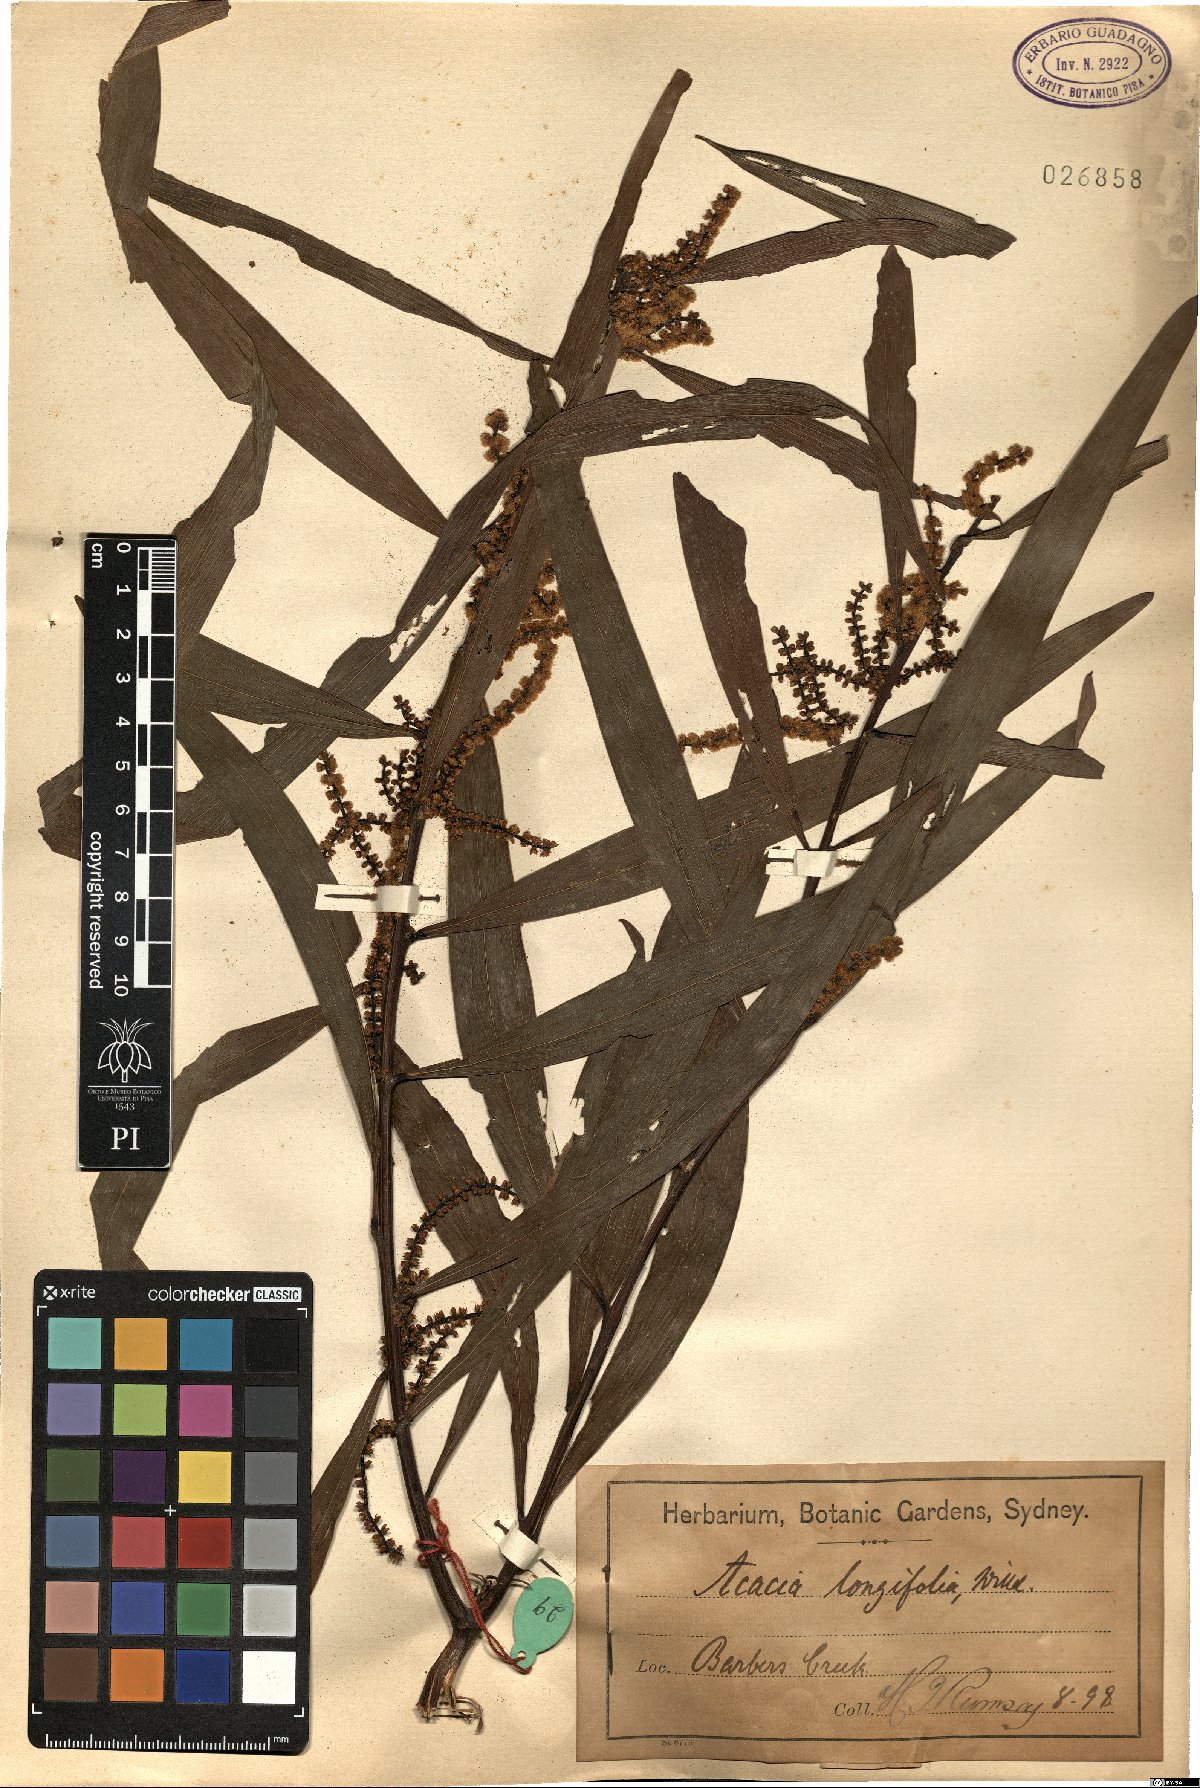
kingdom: Plantae
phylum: Tracheophyta
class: Magnoliopsida
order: Fabales
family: Fabaceae
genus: Acacia
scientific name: Acacia longifolia
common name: Sydney golden wattle
